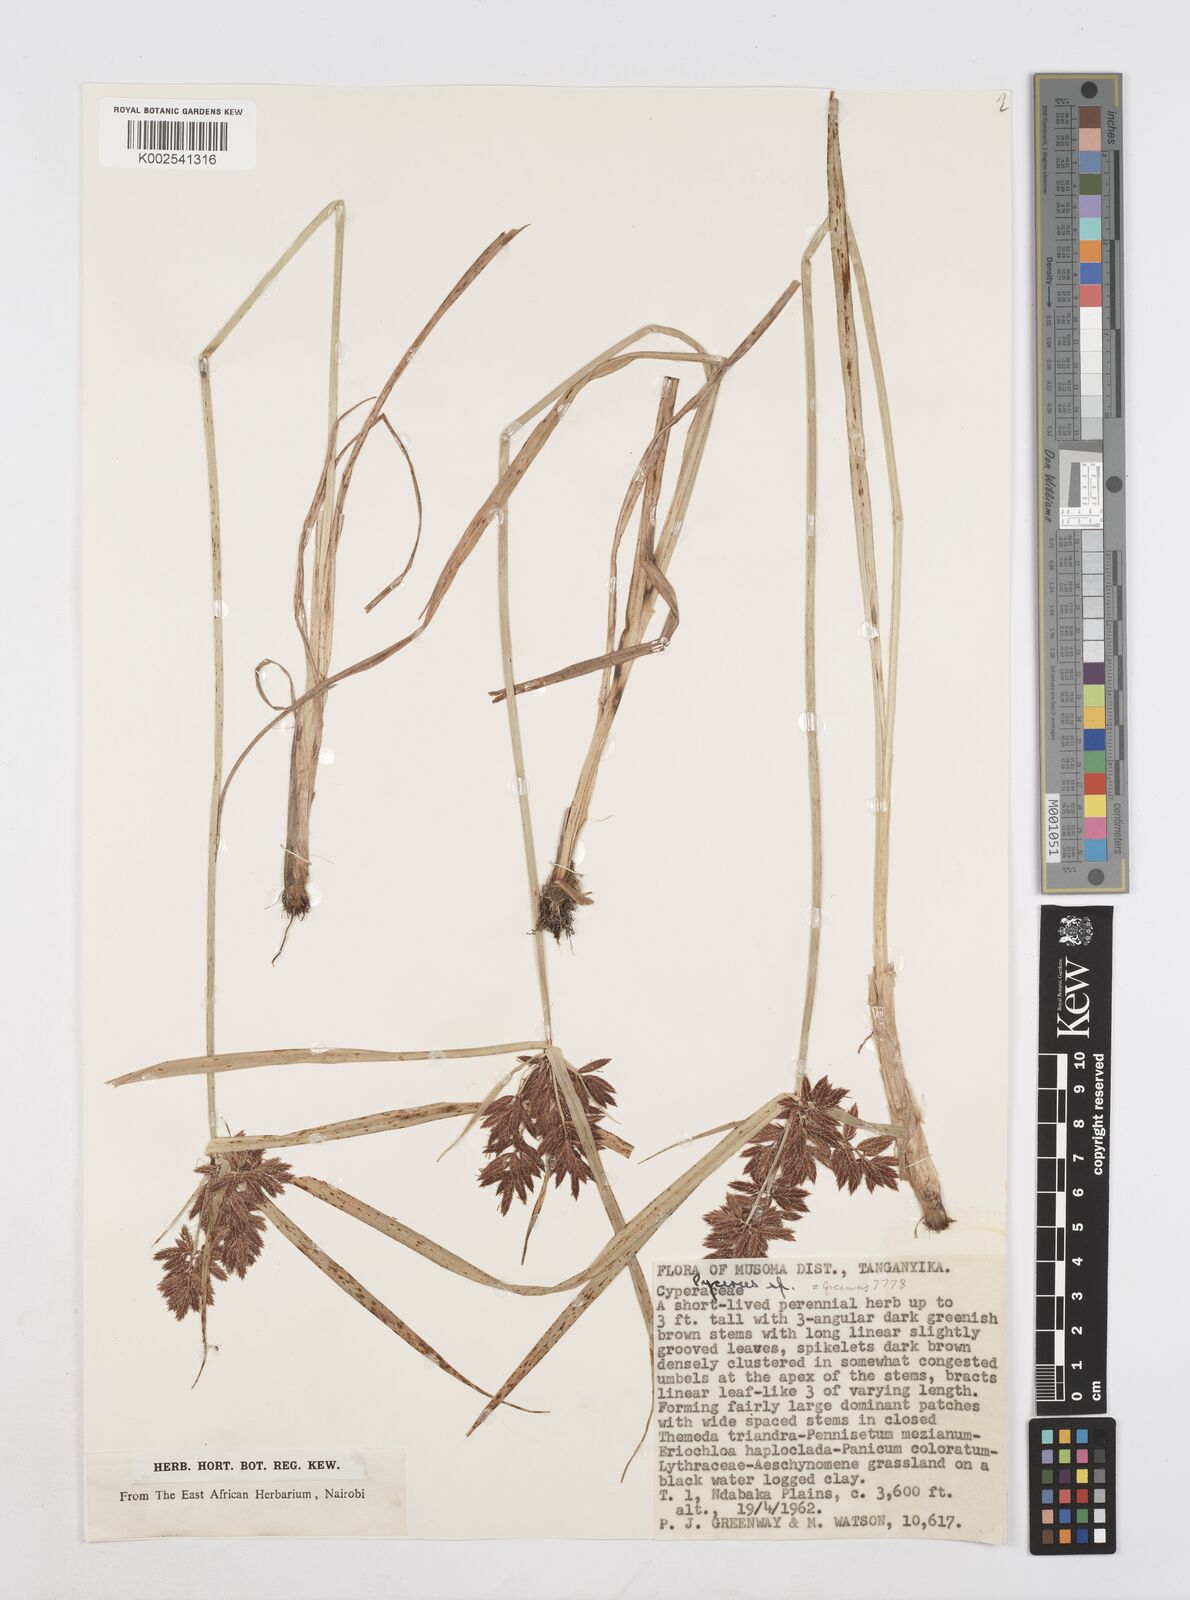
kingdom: Plantae
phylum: Tracheophyta
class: Liliopsida
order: Poales
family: Cyperaceae
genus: Cyperus
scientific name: Cyperus chrysanthus
